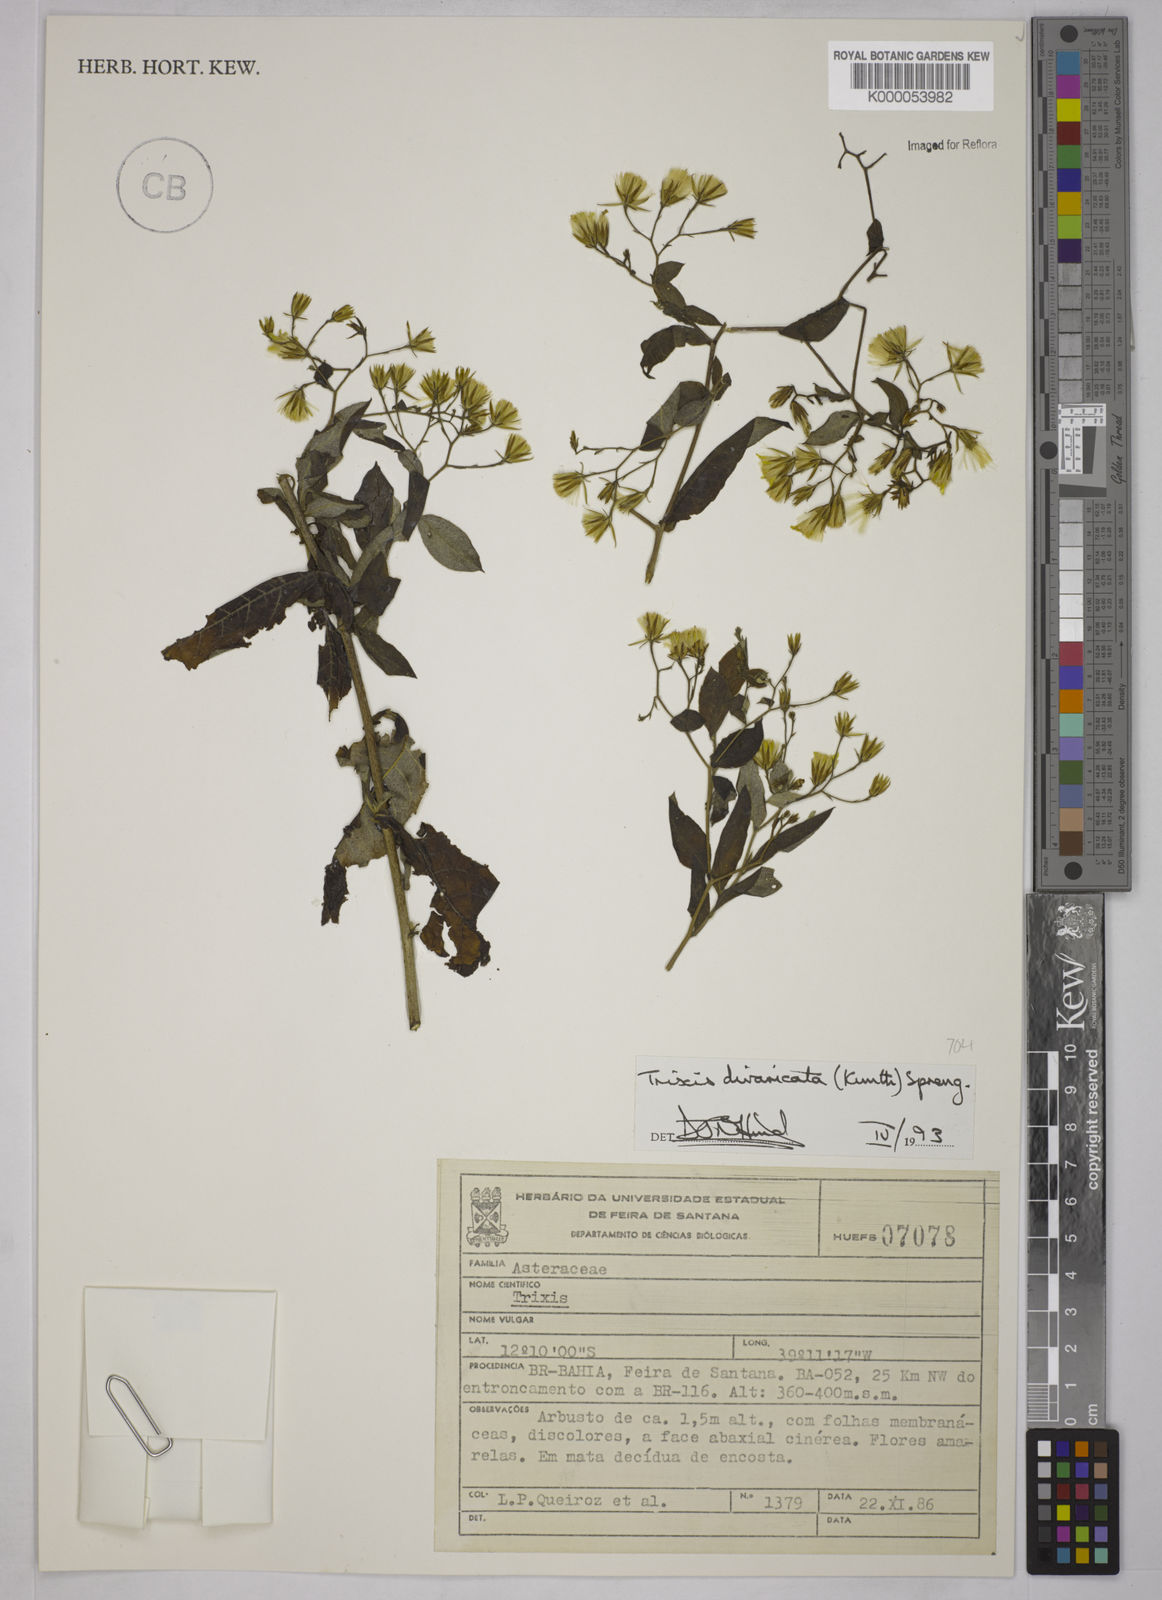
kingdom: Plantae
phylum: Tracheophyta
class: Magnoliopsida
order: Asterales
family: Asteraceae
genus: Trixis
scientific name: Trixis divaricata
